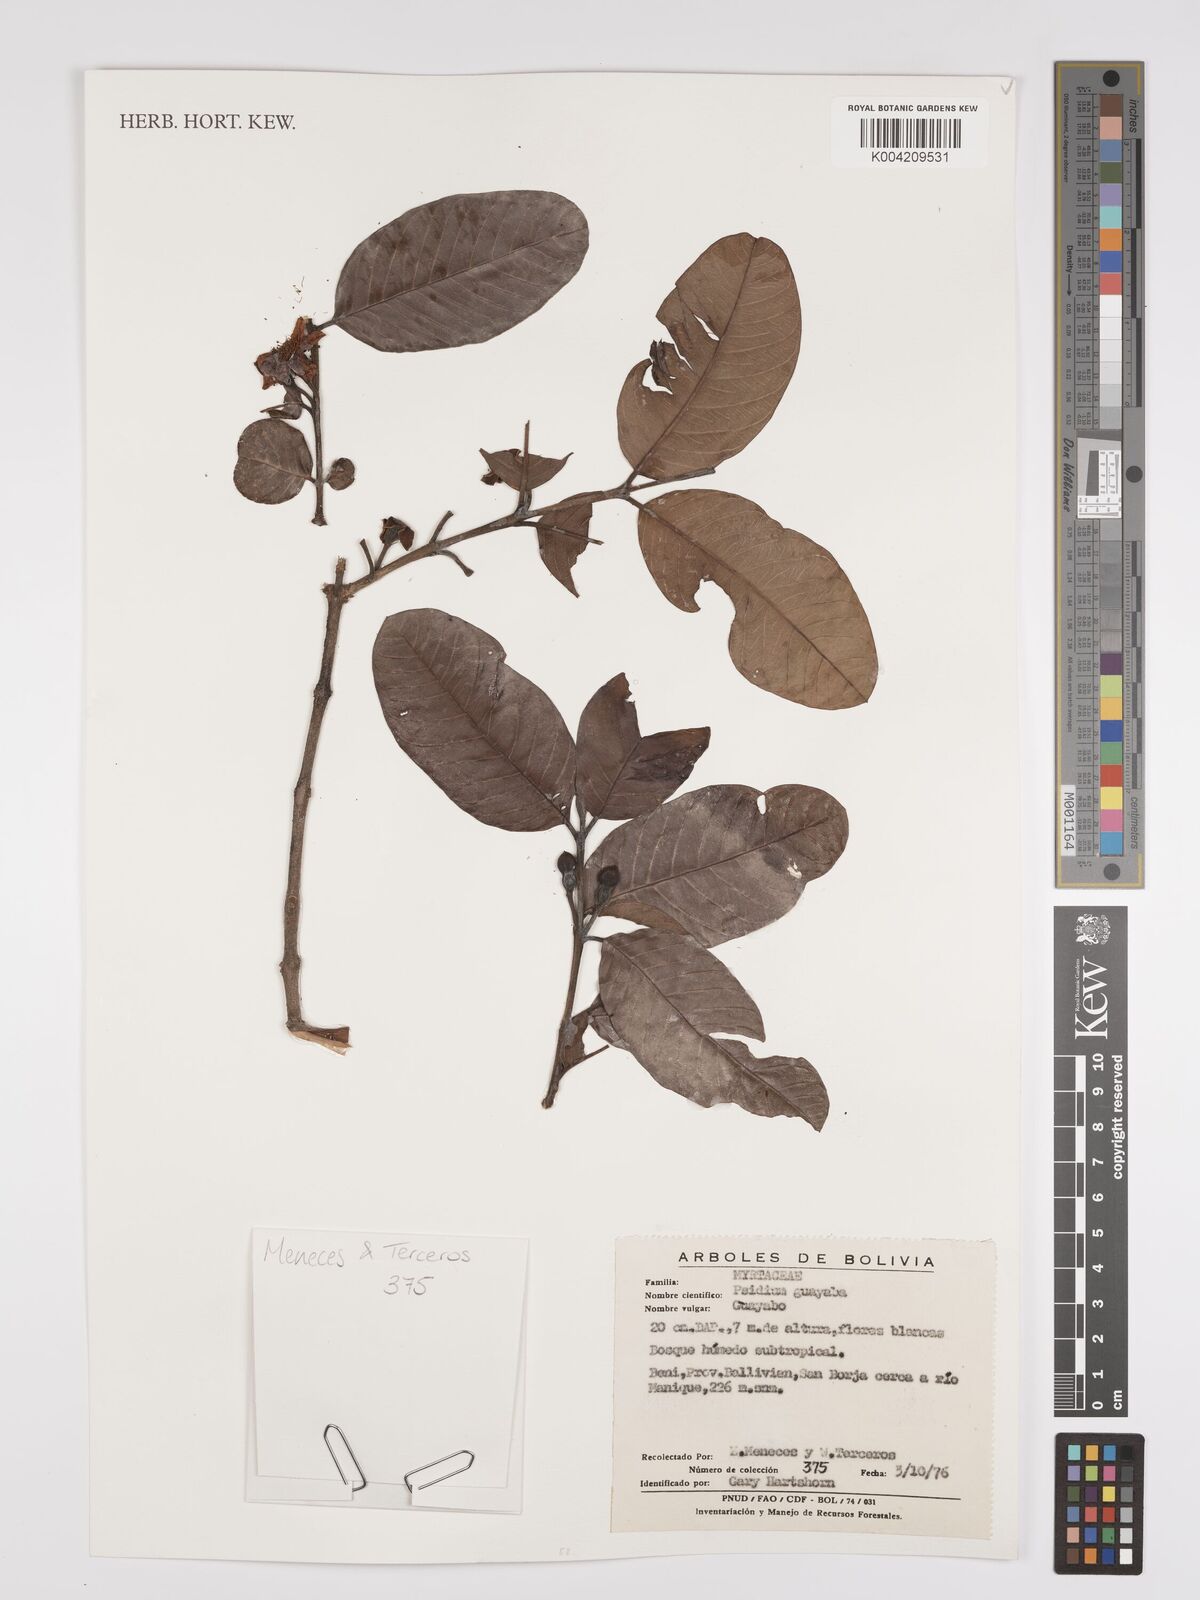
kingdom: Plantae
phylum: Tracheophyta
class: Magnoliopsida
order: Myrtales
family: Myrtaceae
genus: Psidium
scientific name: Psidium guajava
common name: Guava
